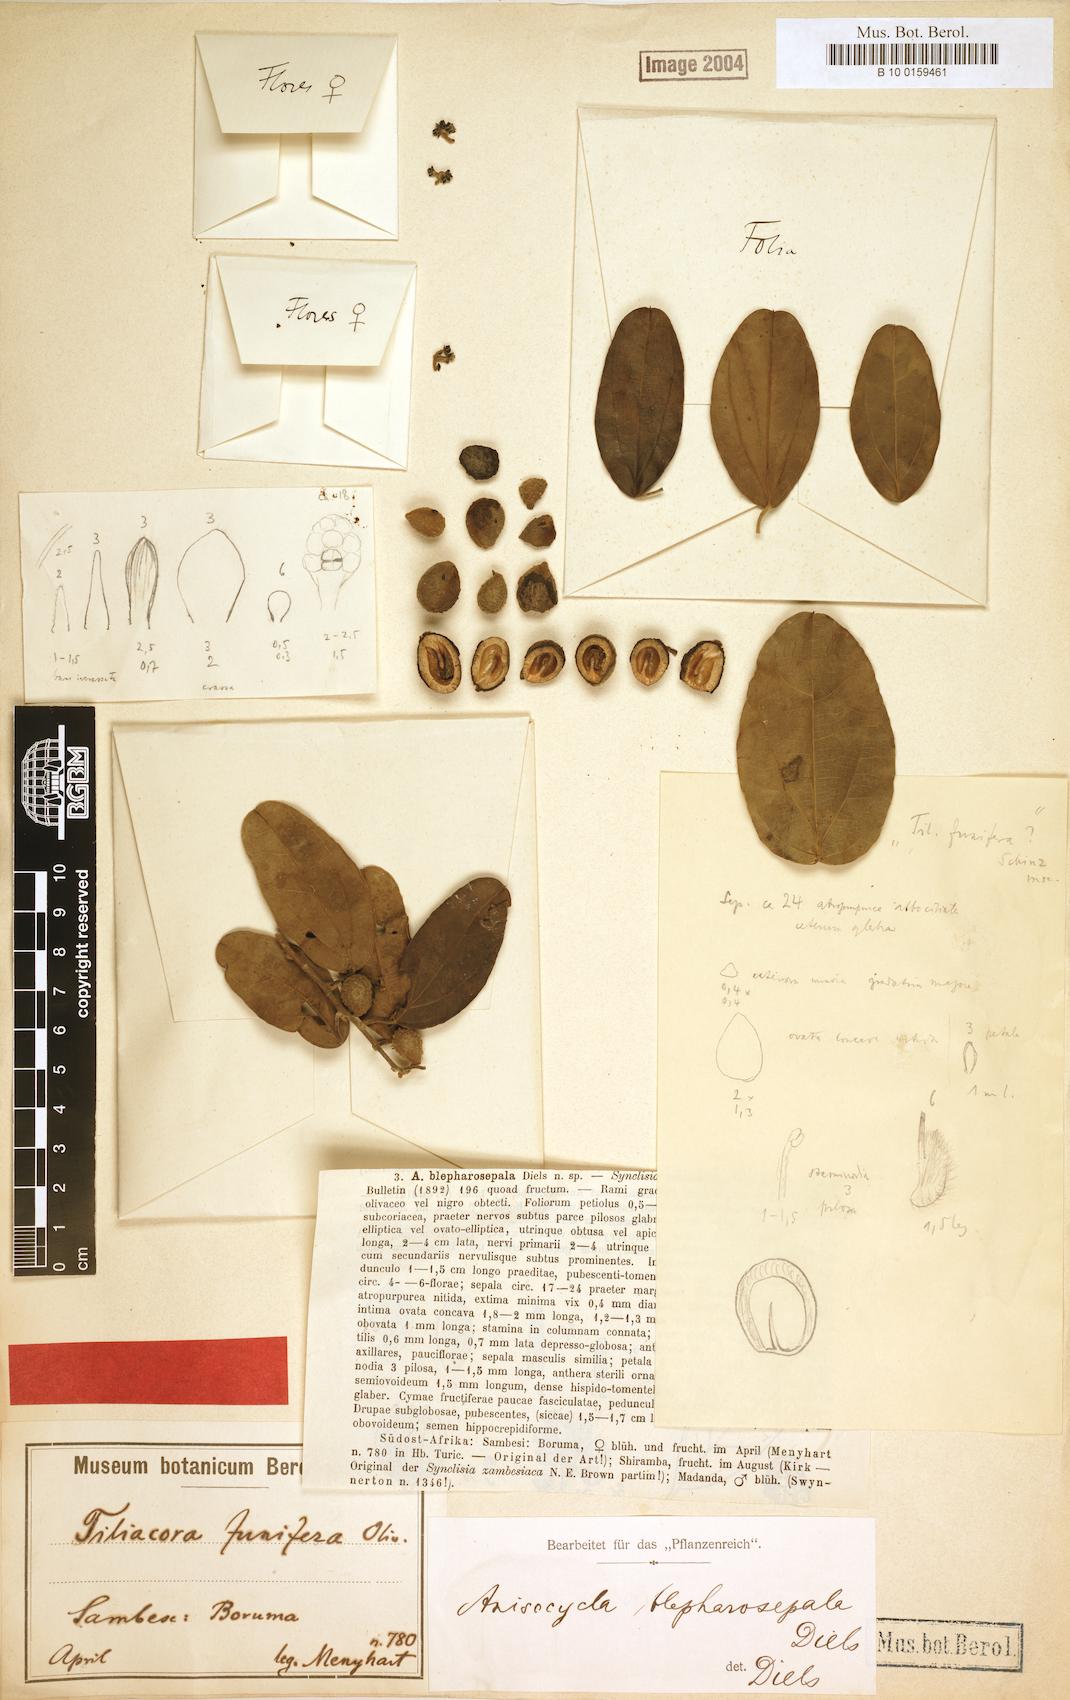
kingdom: Plantae
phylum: Tracheophyta
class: Magnoliopsida
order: Ranunculales
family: Menispermaceae
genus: Anisocycla
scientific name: Anisocycla blepharosepala
